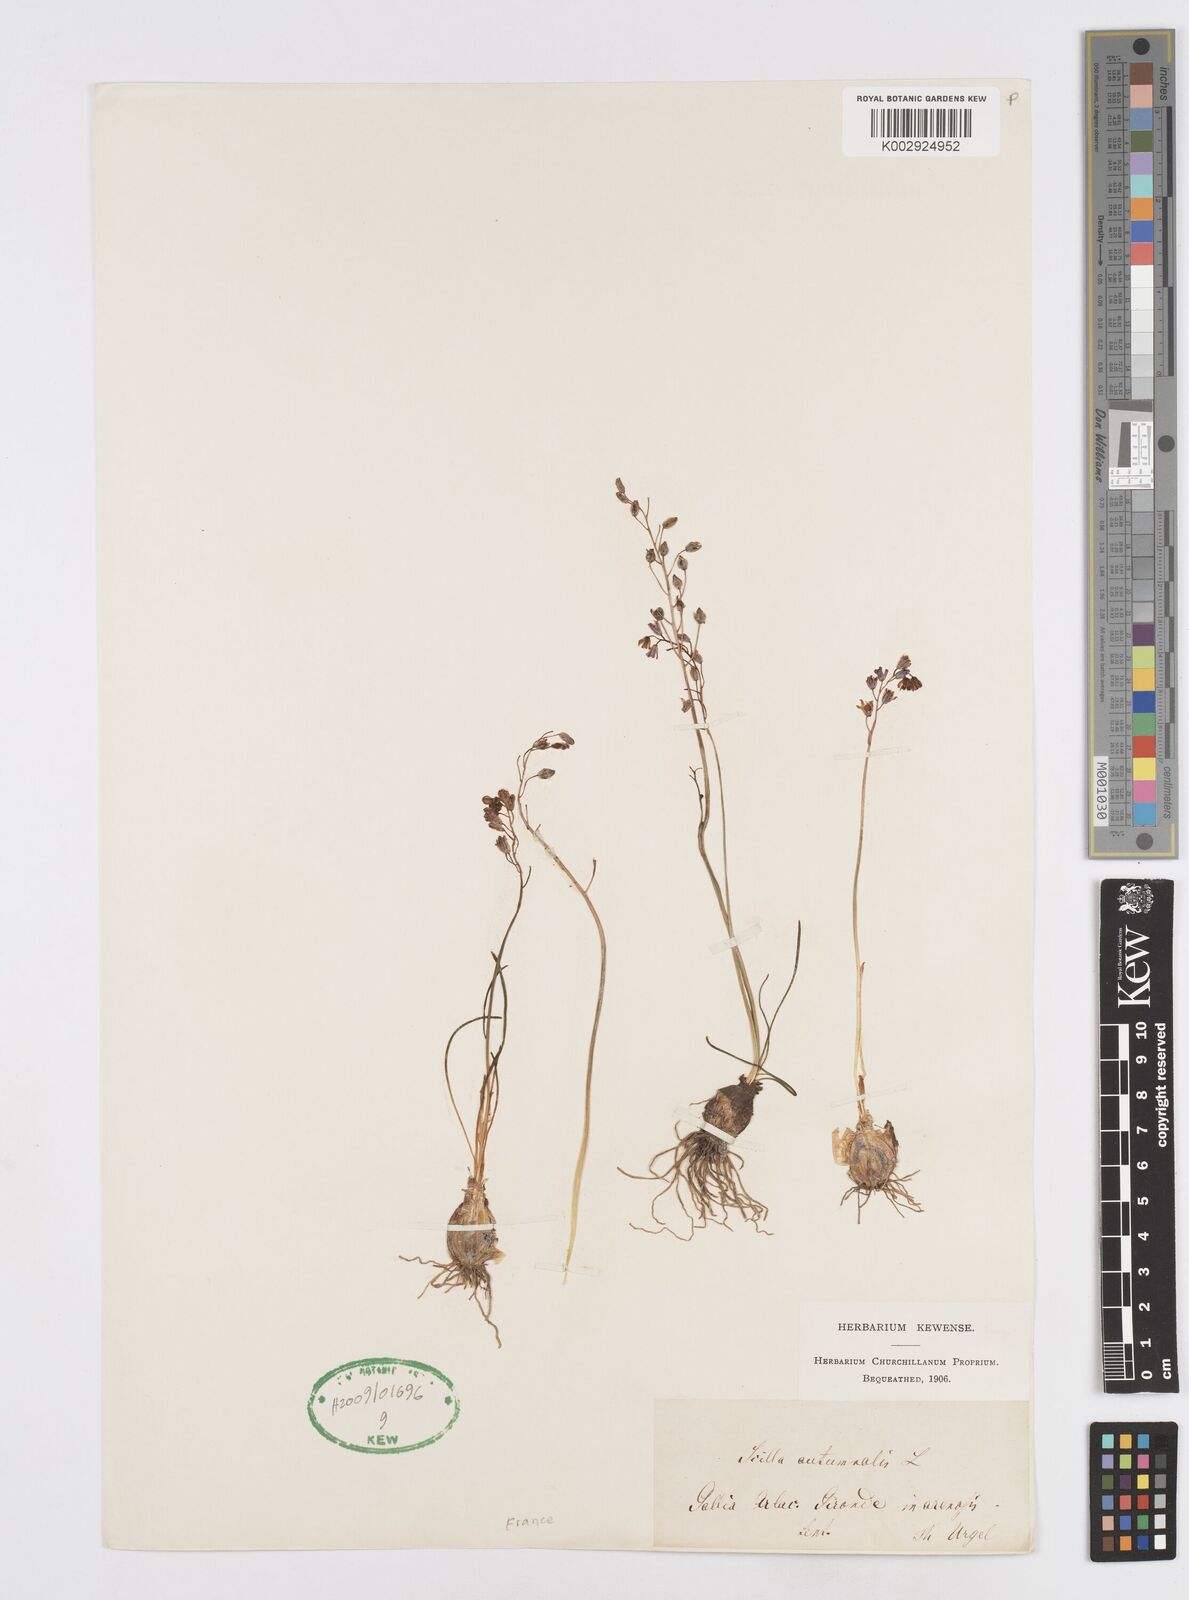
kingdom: Plantae
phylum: Tracheophyta
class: Liliopsida
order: Asparagales
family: Asparagaceae
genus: Prospero
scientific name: Prospero autumnale
